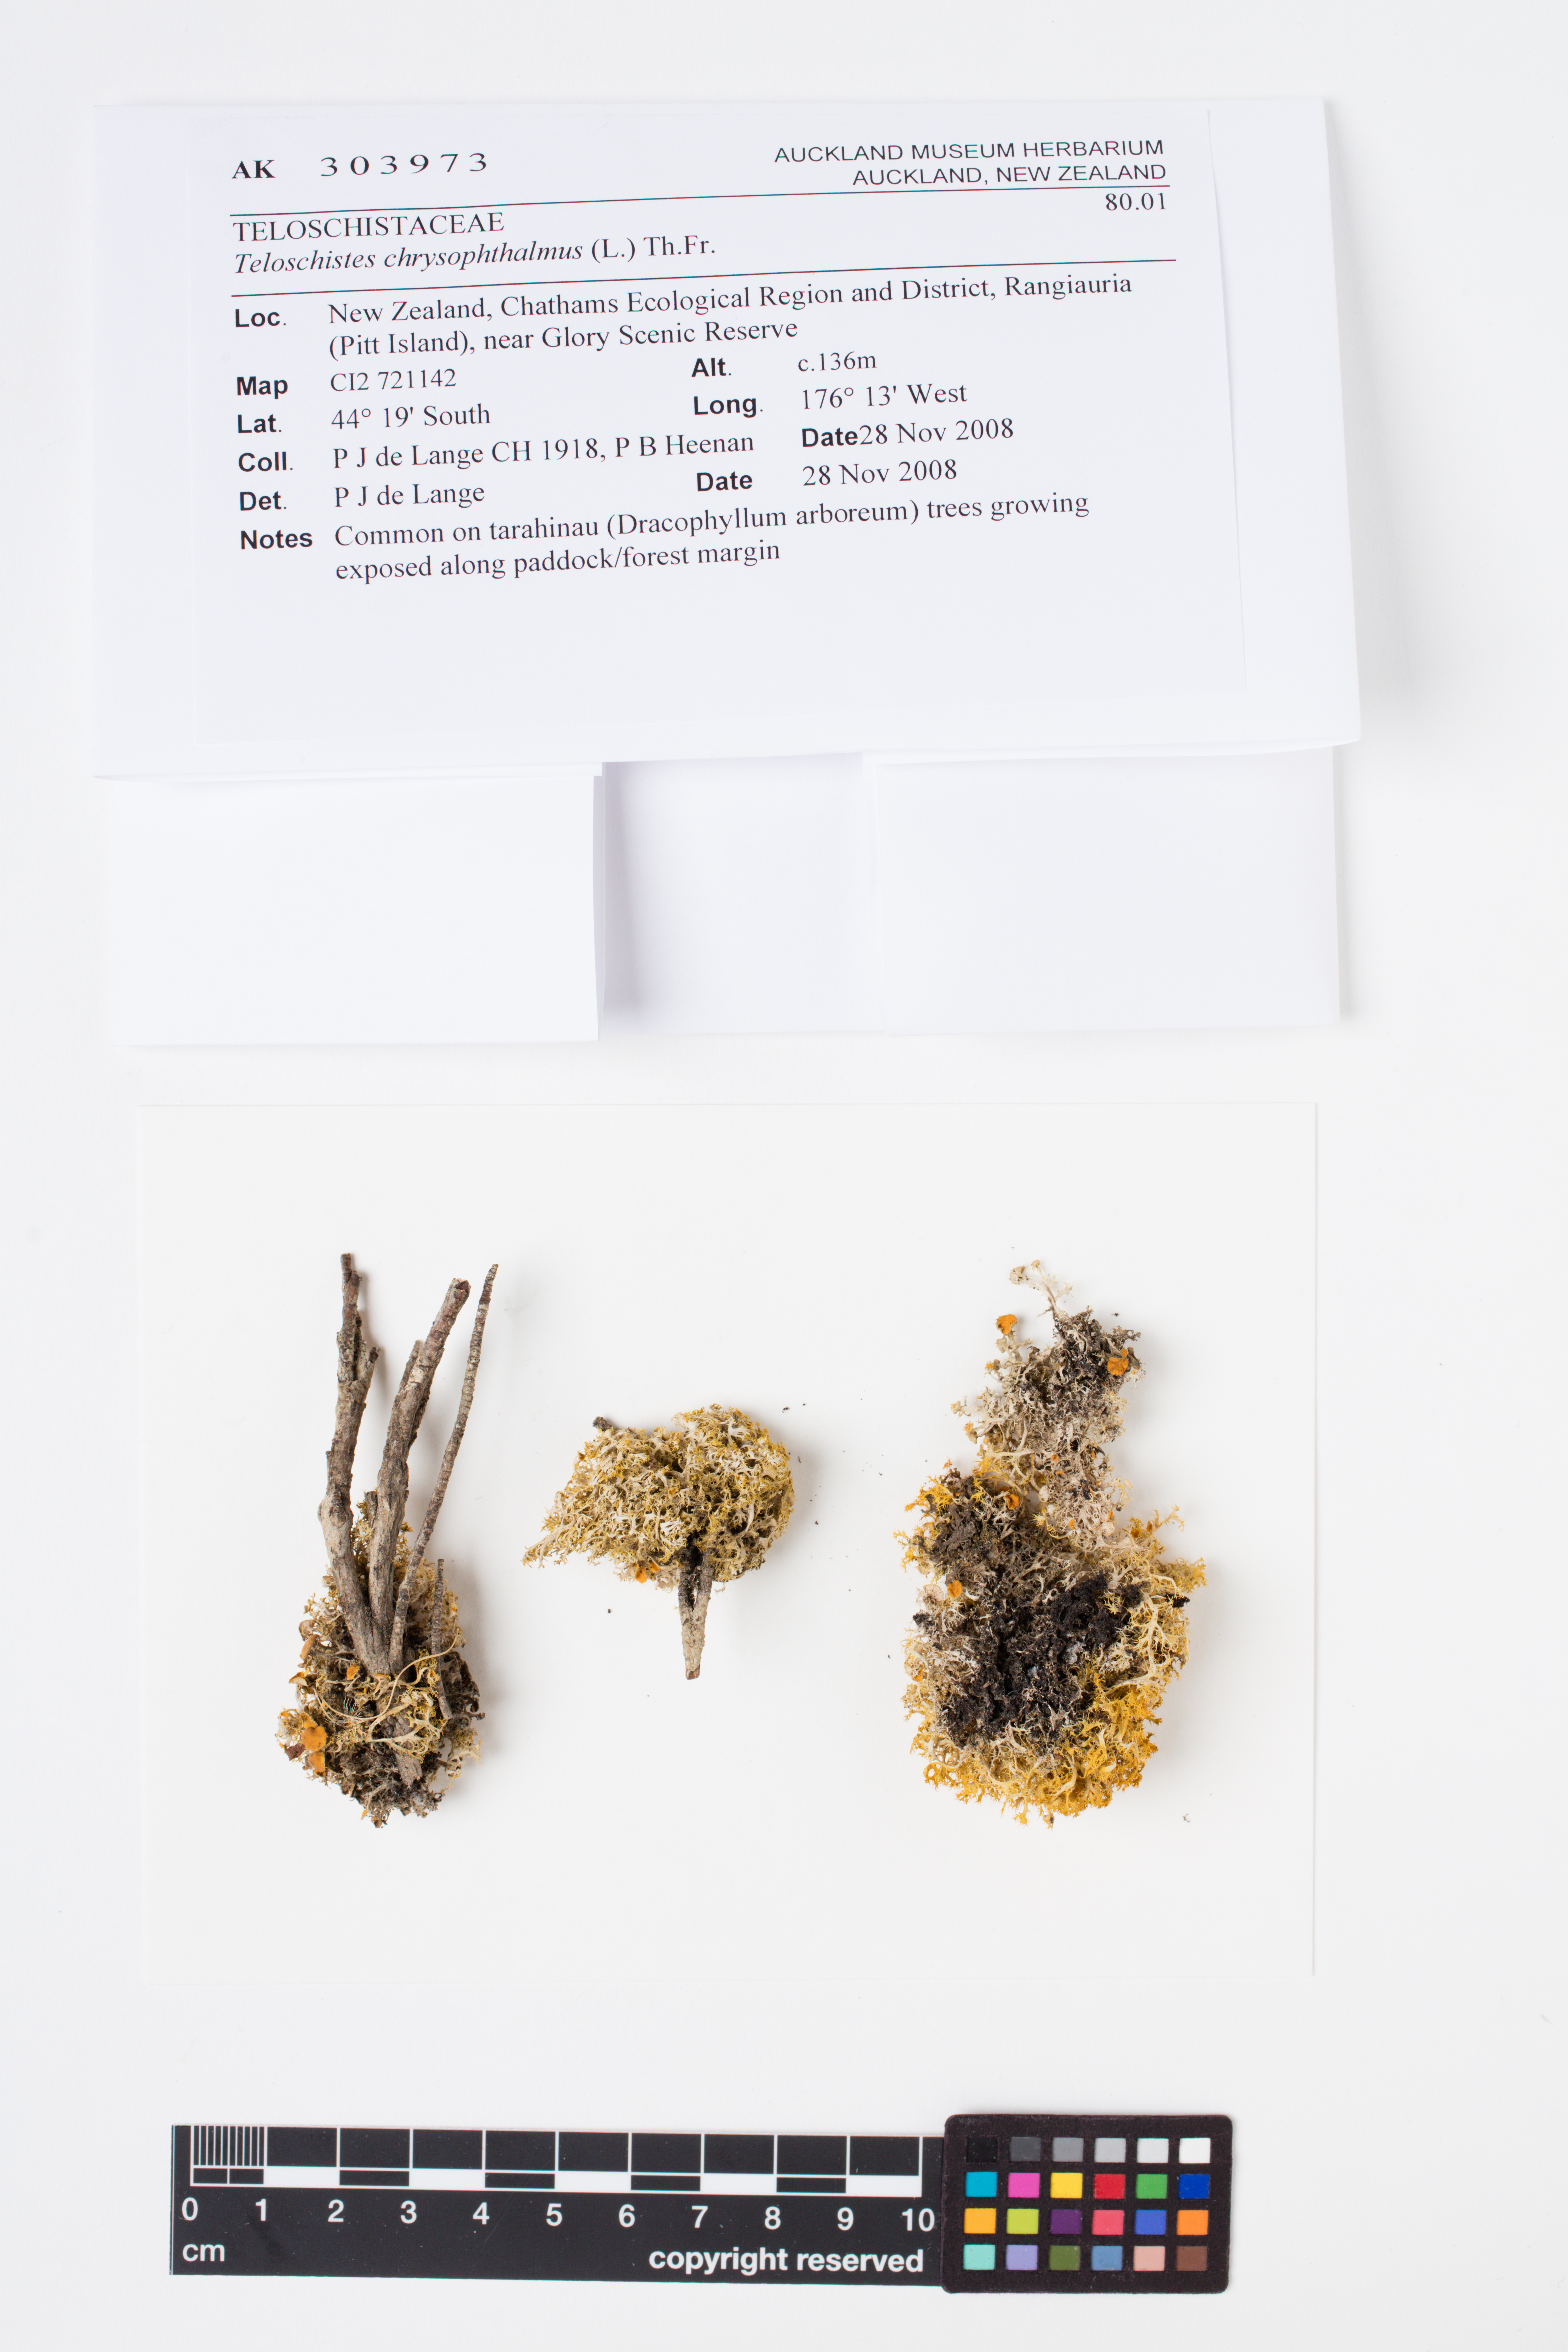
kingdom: Fungi
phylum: Ascomycota
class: Lecanoromycetes
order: Teloschistales
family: Teloschistaceae
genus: Niorma
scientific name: Niorma chrysophthalma
